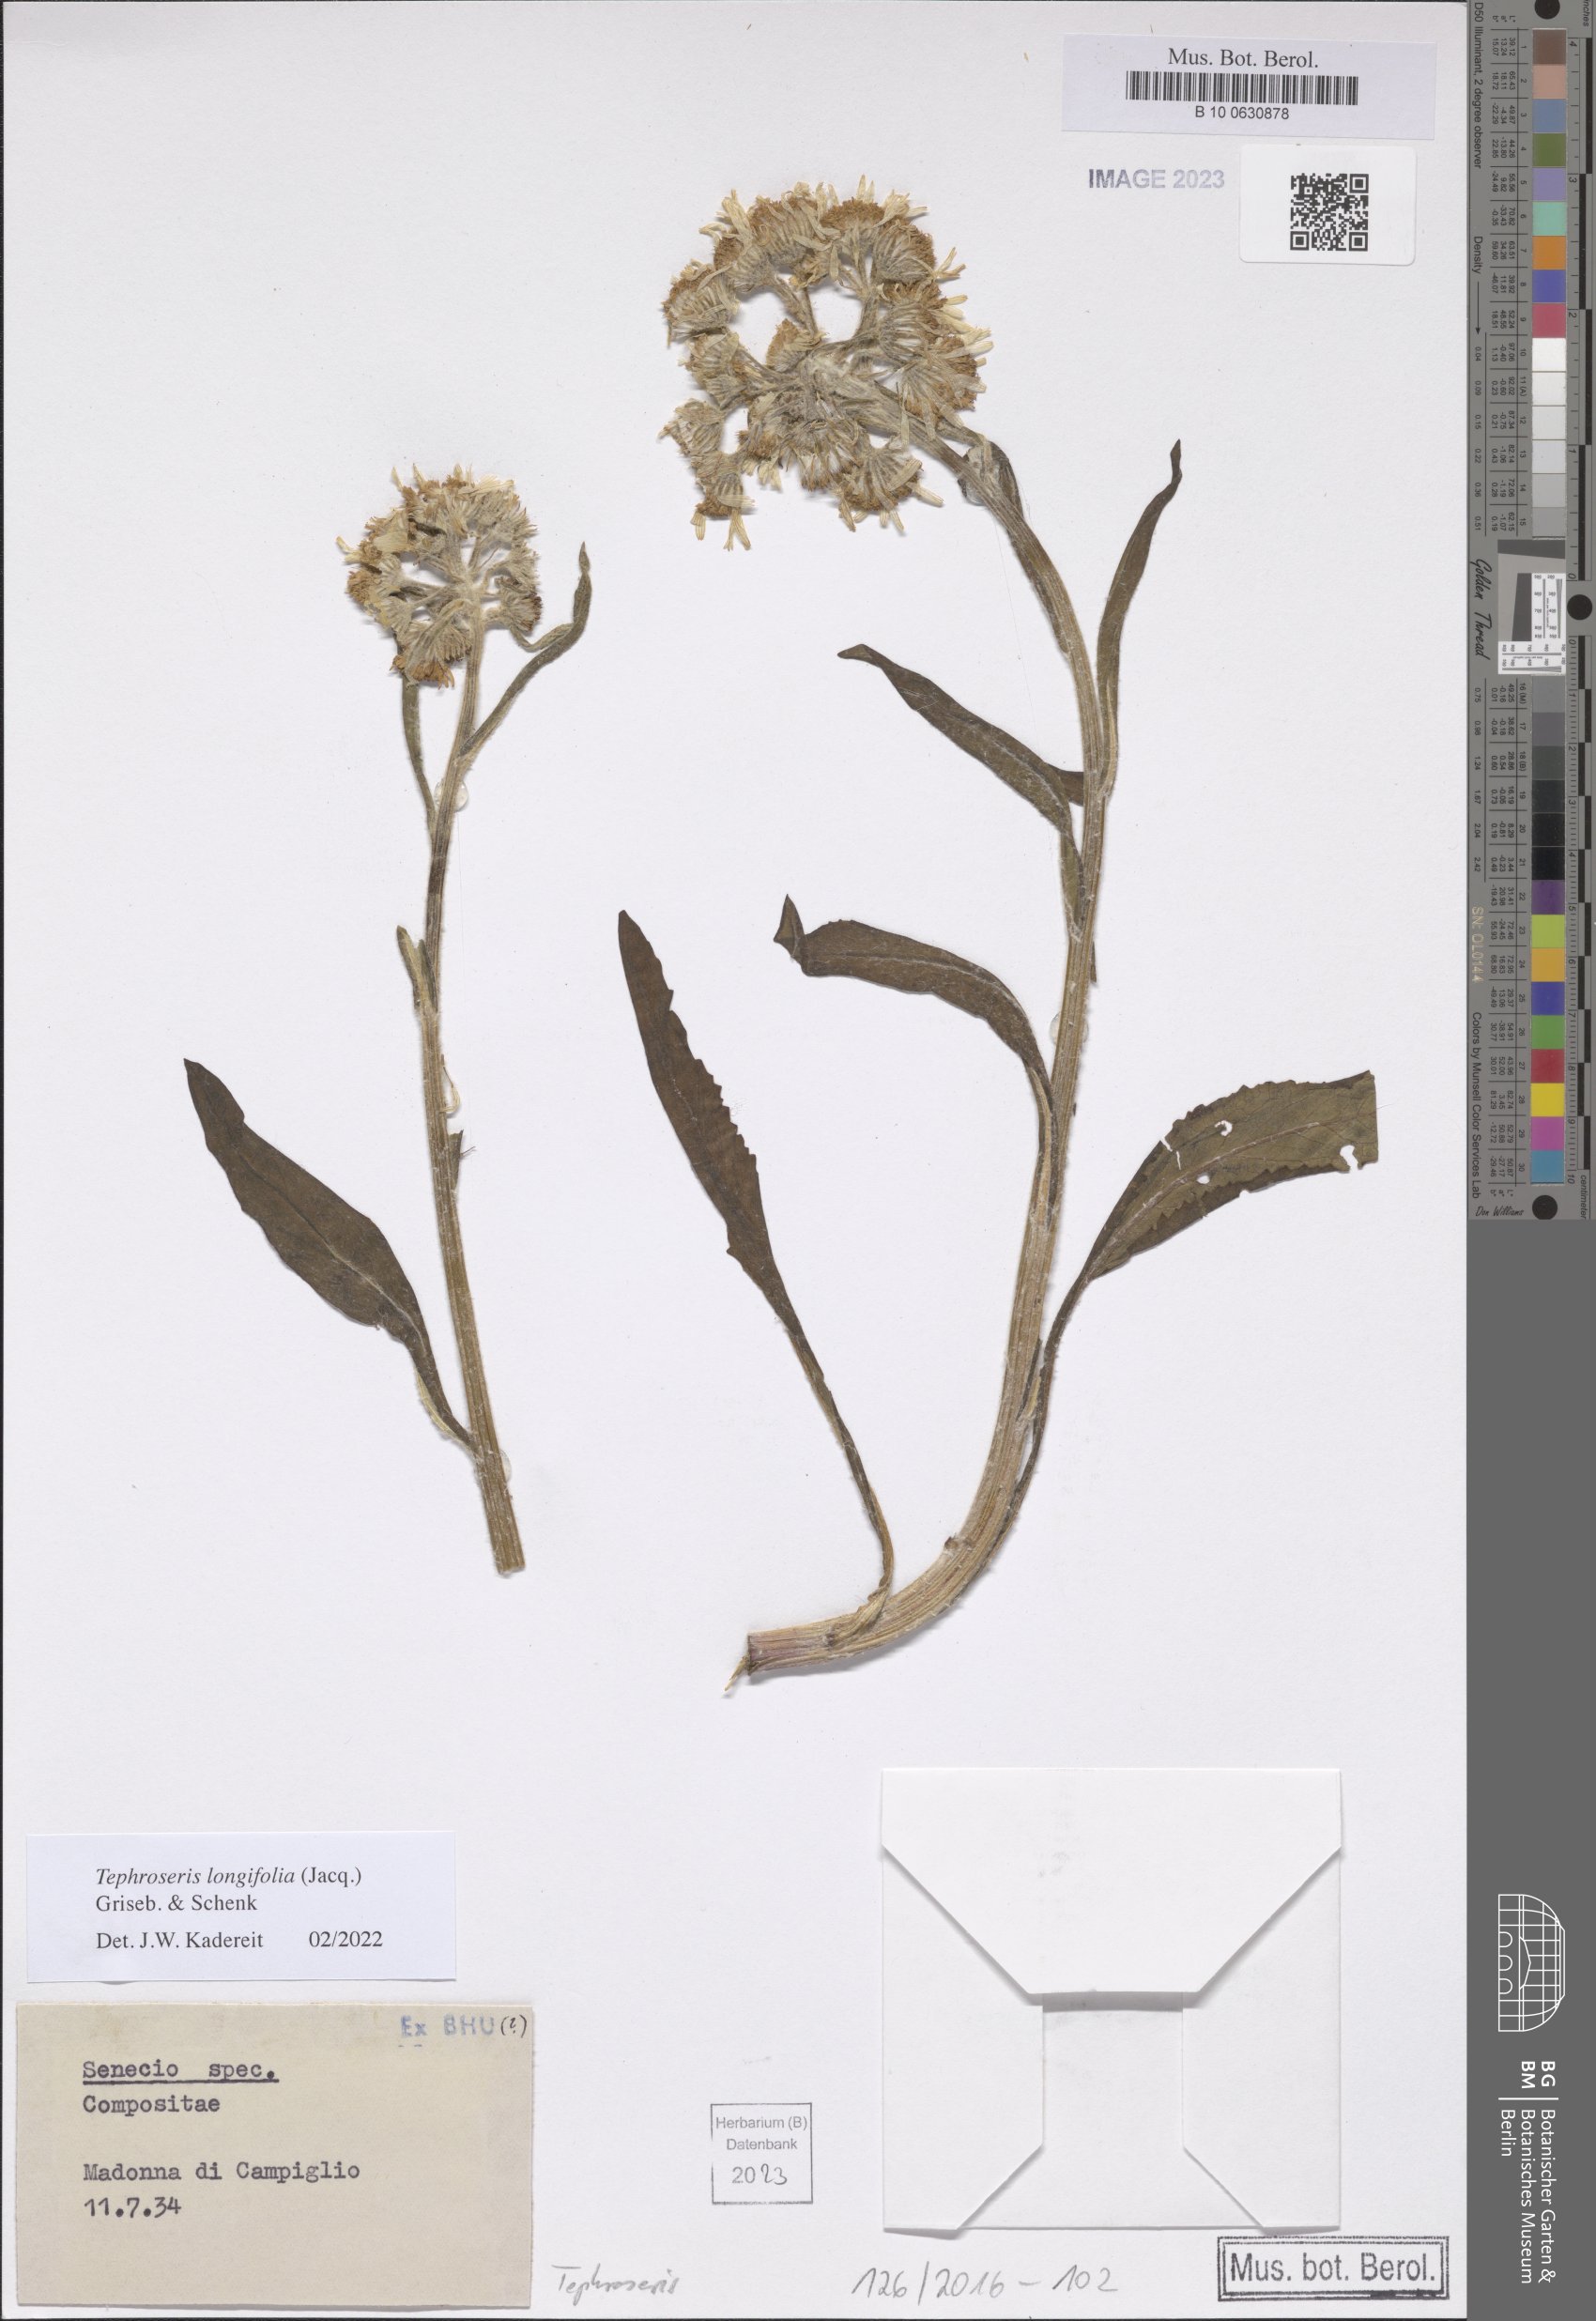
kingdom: Plantae
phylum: Tracheophyta
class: Magnoliopsida
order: Asterales
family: Asteraceae
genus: Tephroseris
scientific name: Tephroseris longifolia
